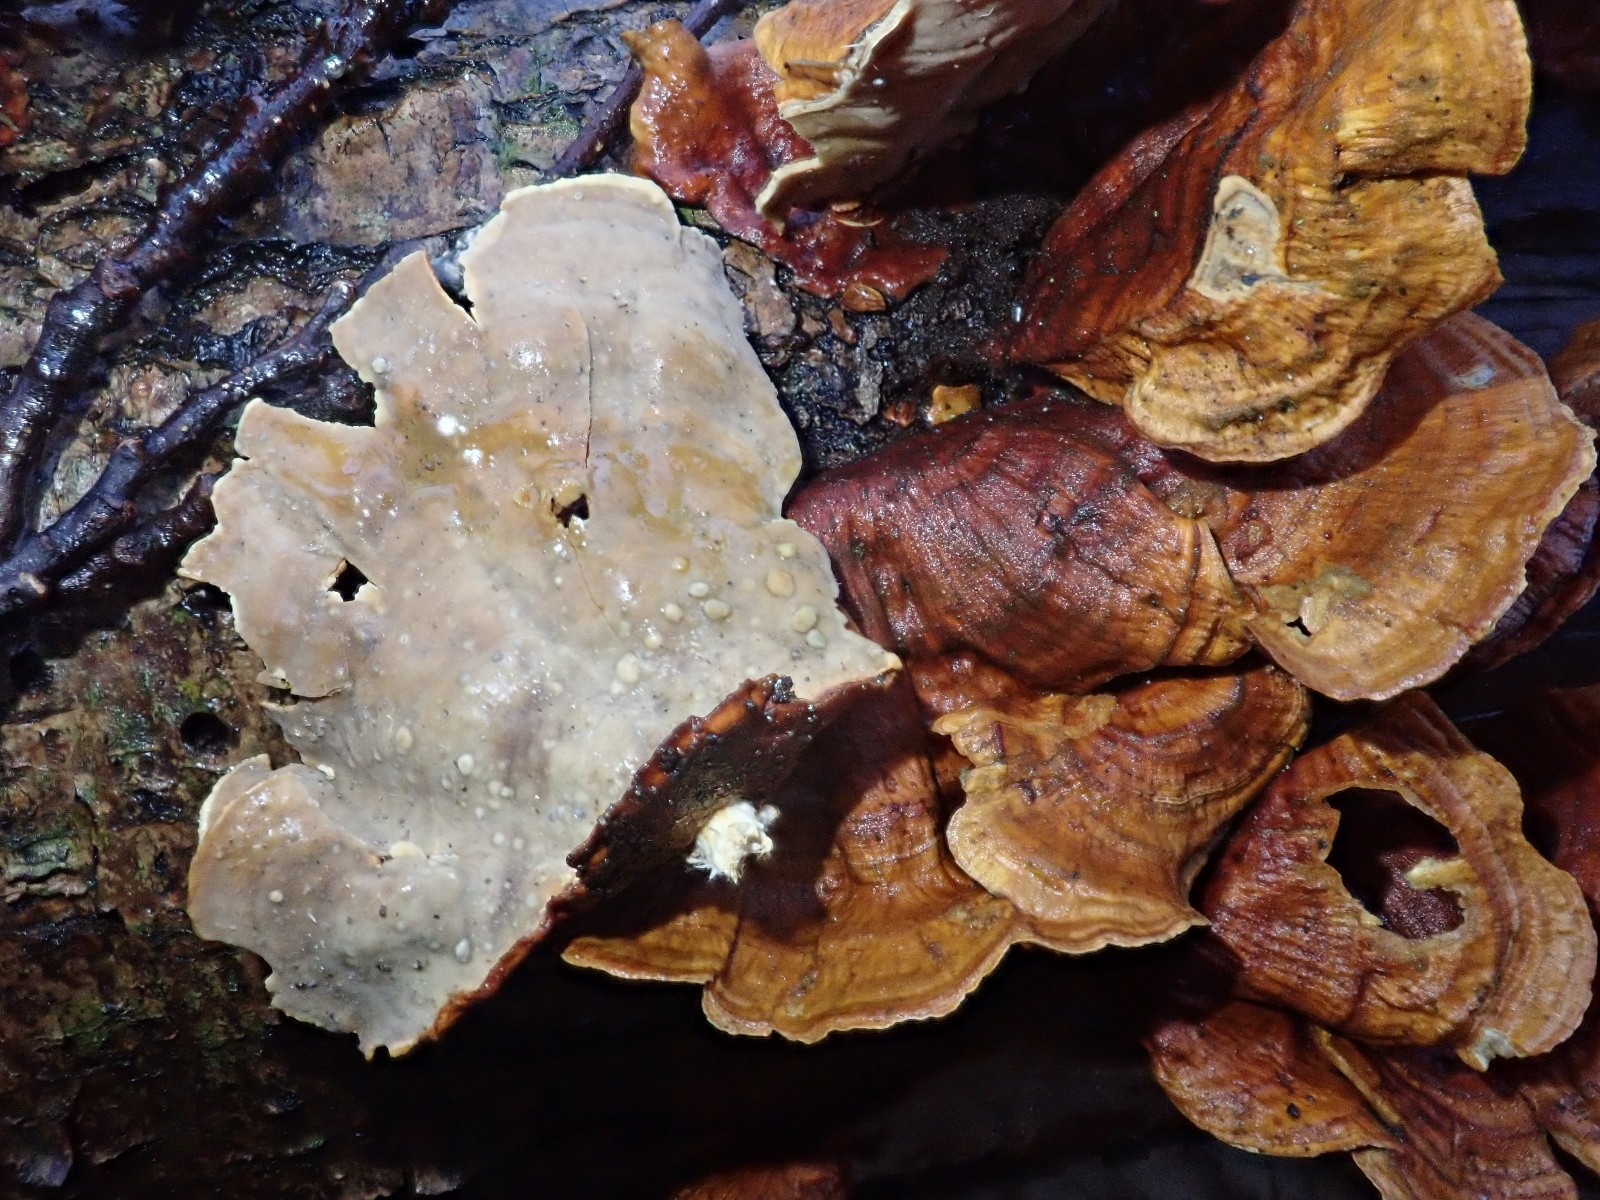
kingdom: Fungi
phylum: Basidiomycota
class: Agaricomycetes
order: Russulales
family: Stereaceae
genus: Stereum
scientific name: Stereum subtomentosum
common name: smuk lædersvamp
